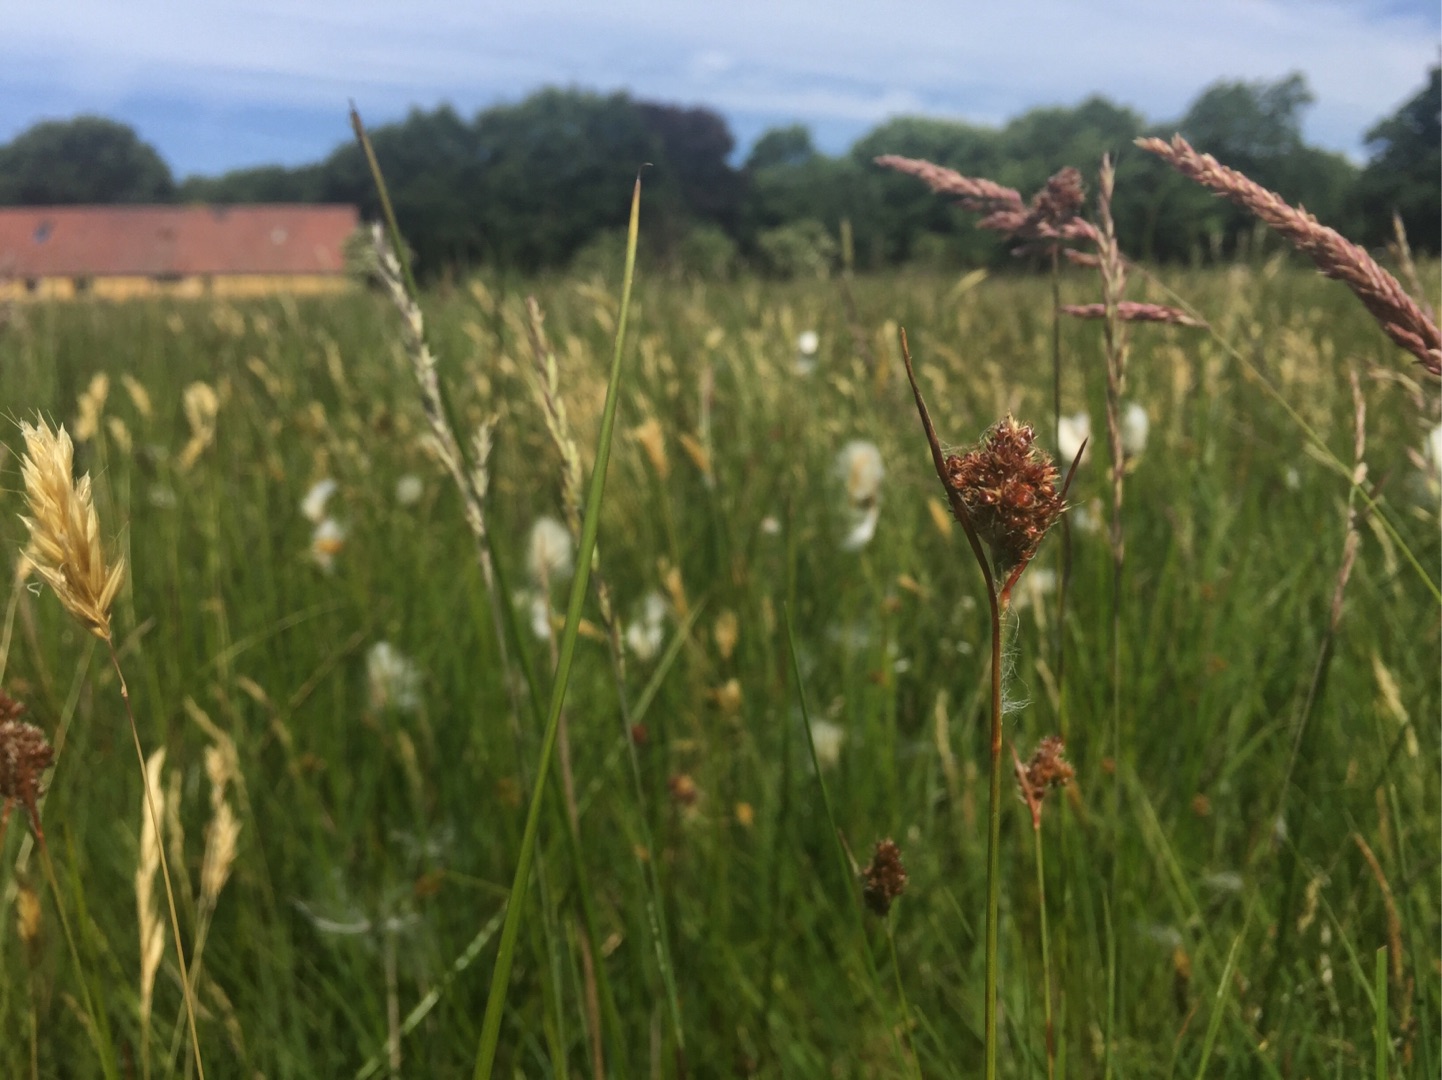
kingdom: Plantae
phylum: Tracheophyta
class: Liliopsida
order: Poales
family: Juncaceae
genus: Luzula
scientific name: Luzula congesta
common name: Hoved-frytle
